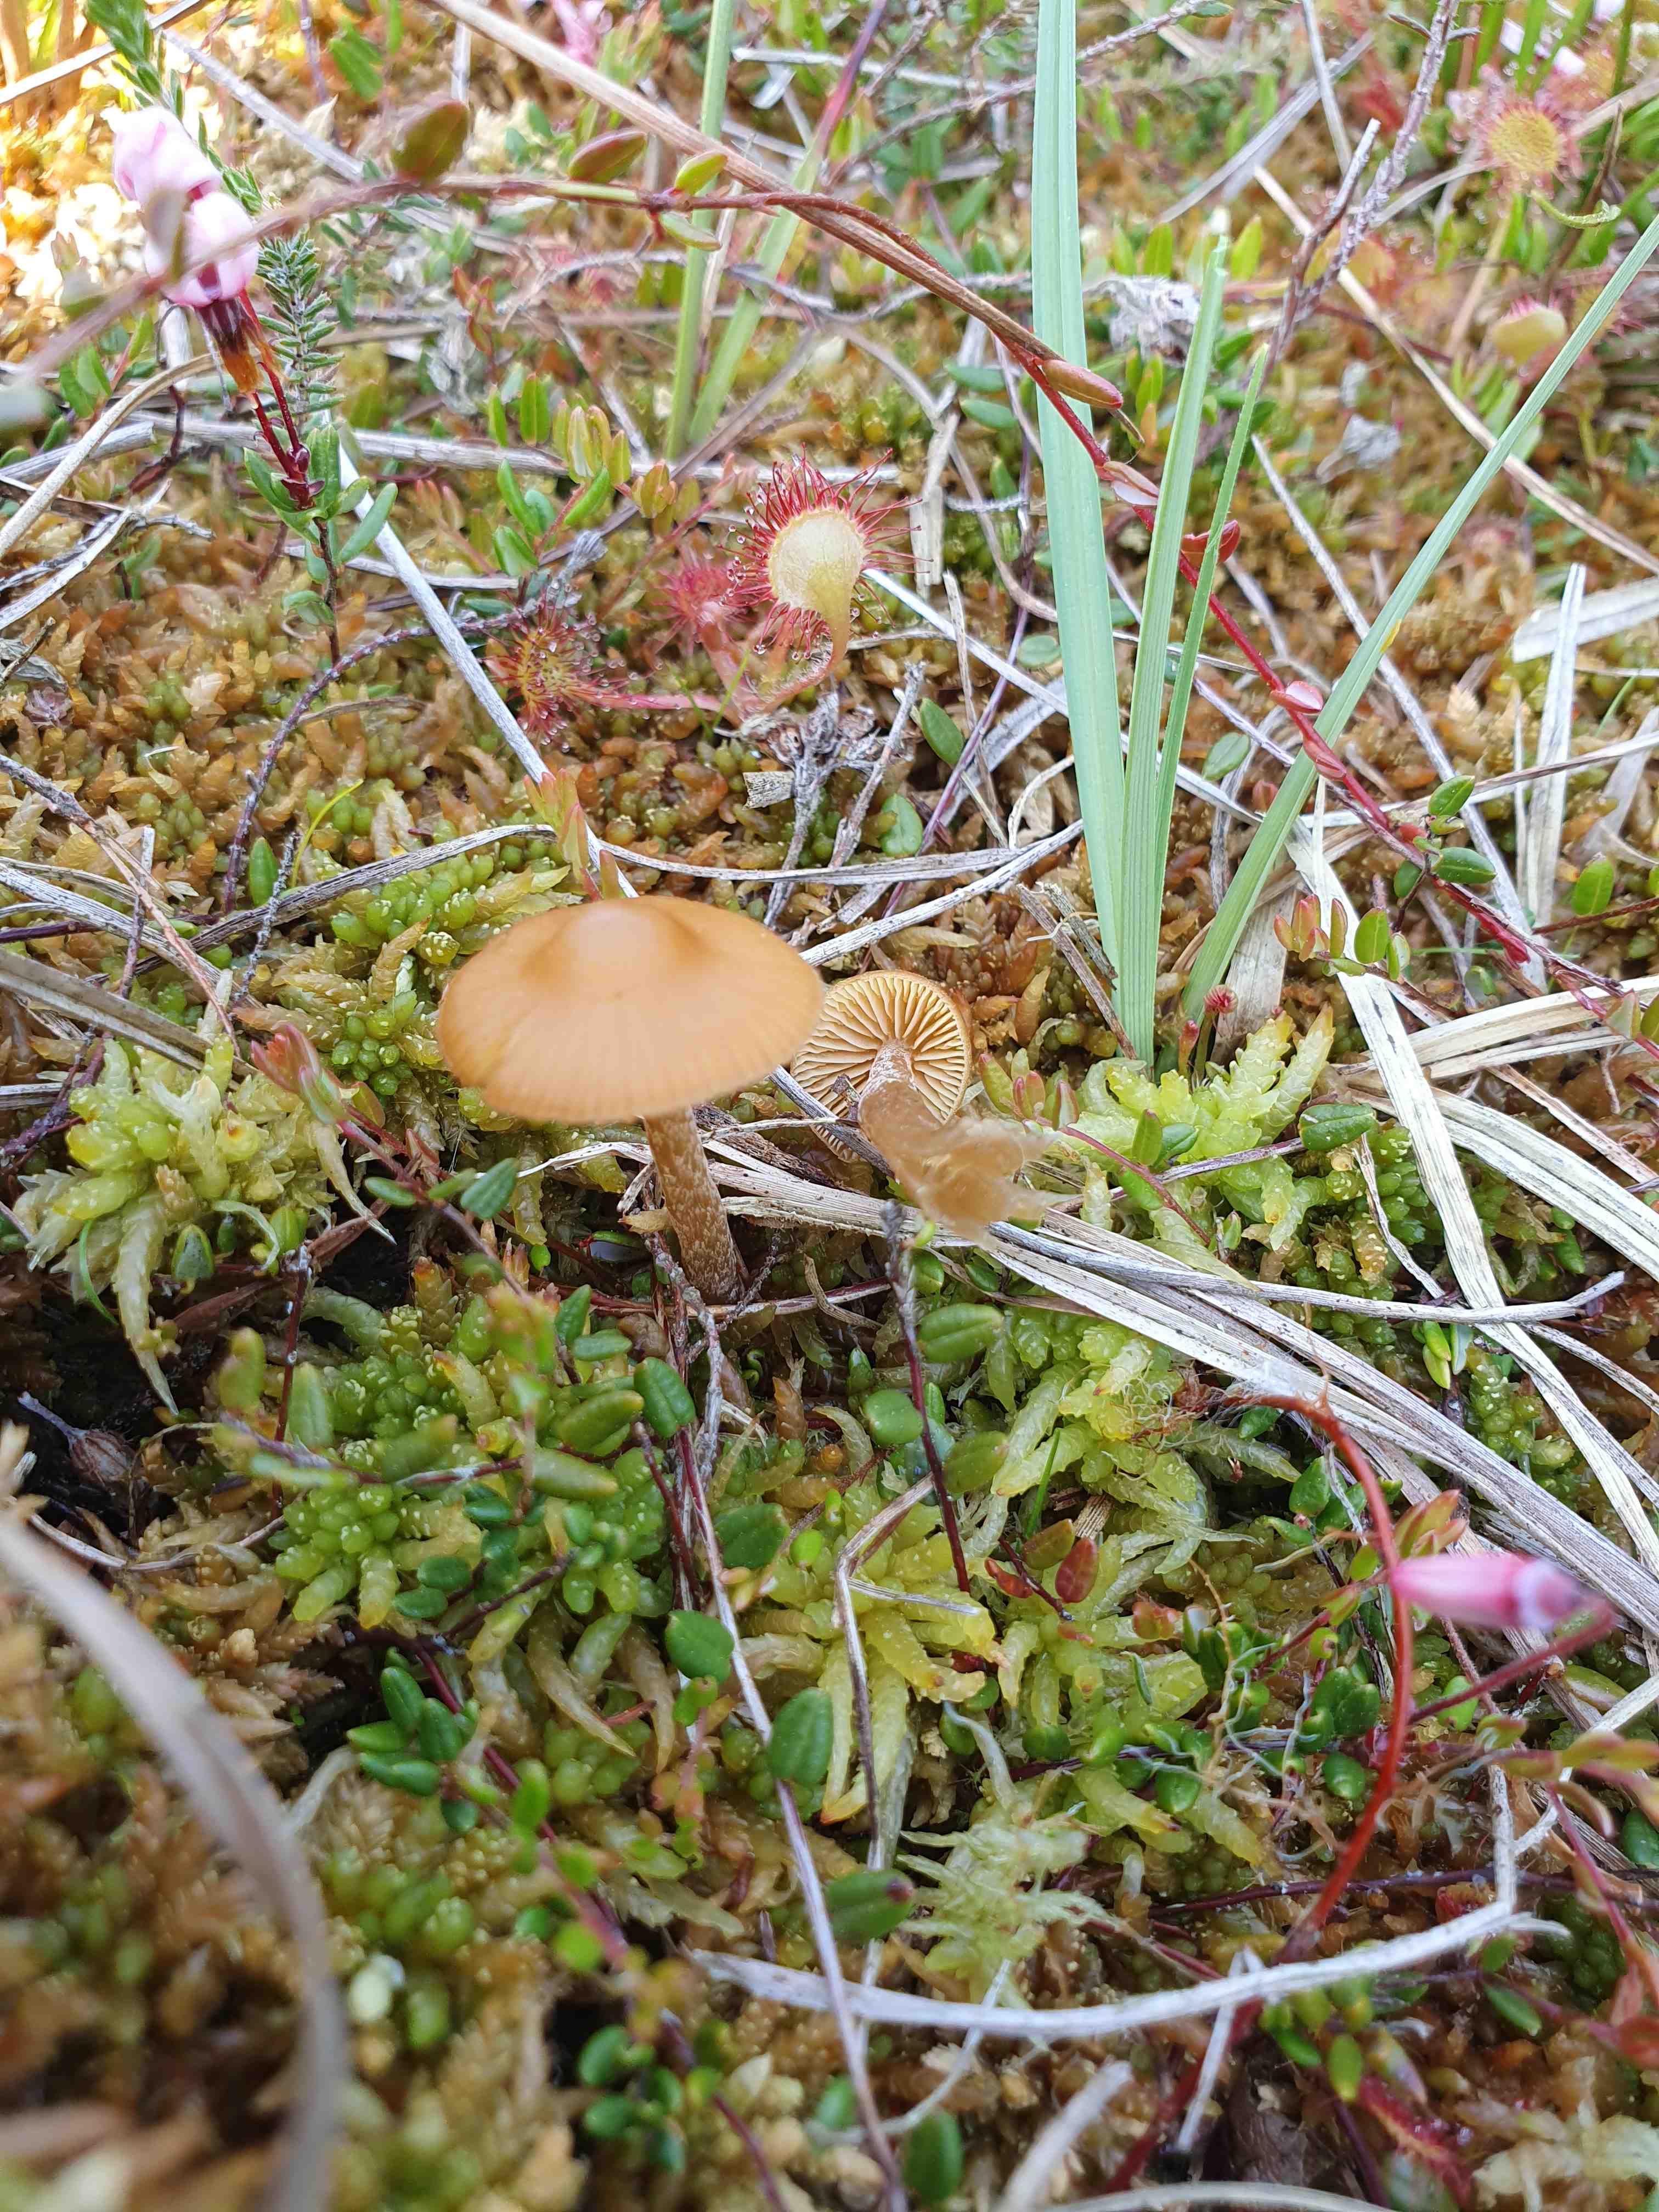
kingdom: Fungi
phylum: Basidiomycota
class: Agaricomycetes
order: Agaricales
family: Hymenogastraceae
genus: Galerina
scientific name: Galerina hybrida
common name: hængesæk-hjelmhat
